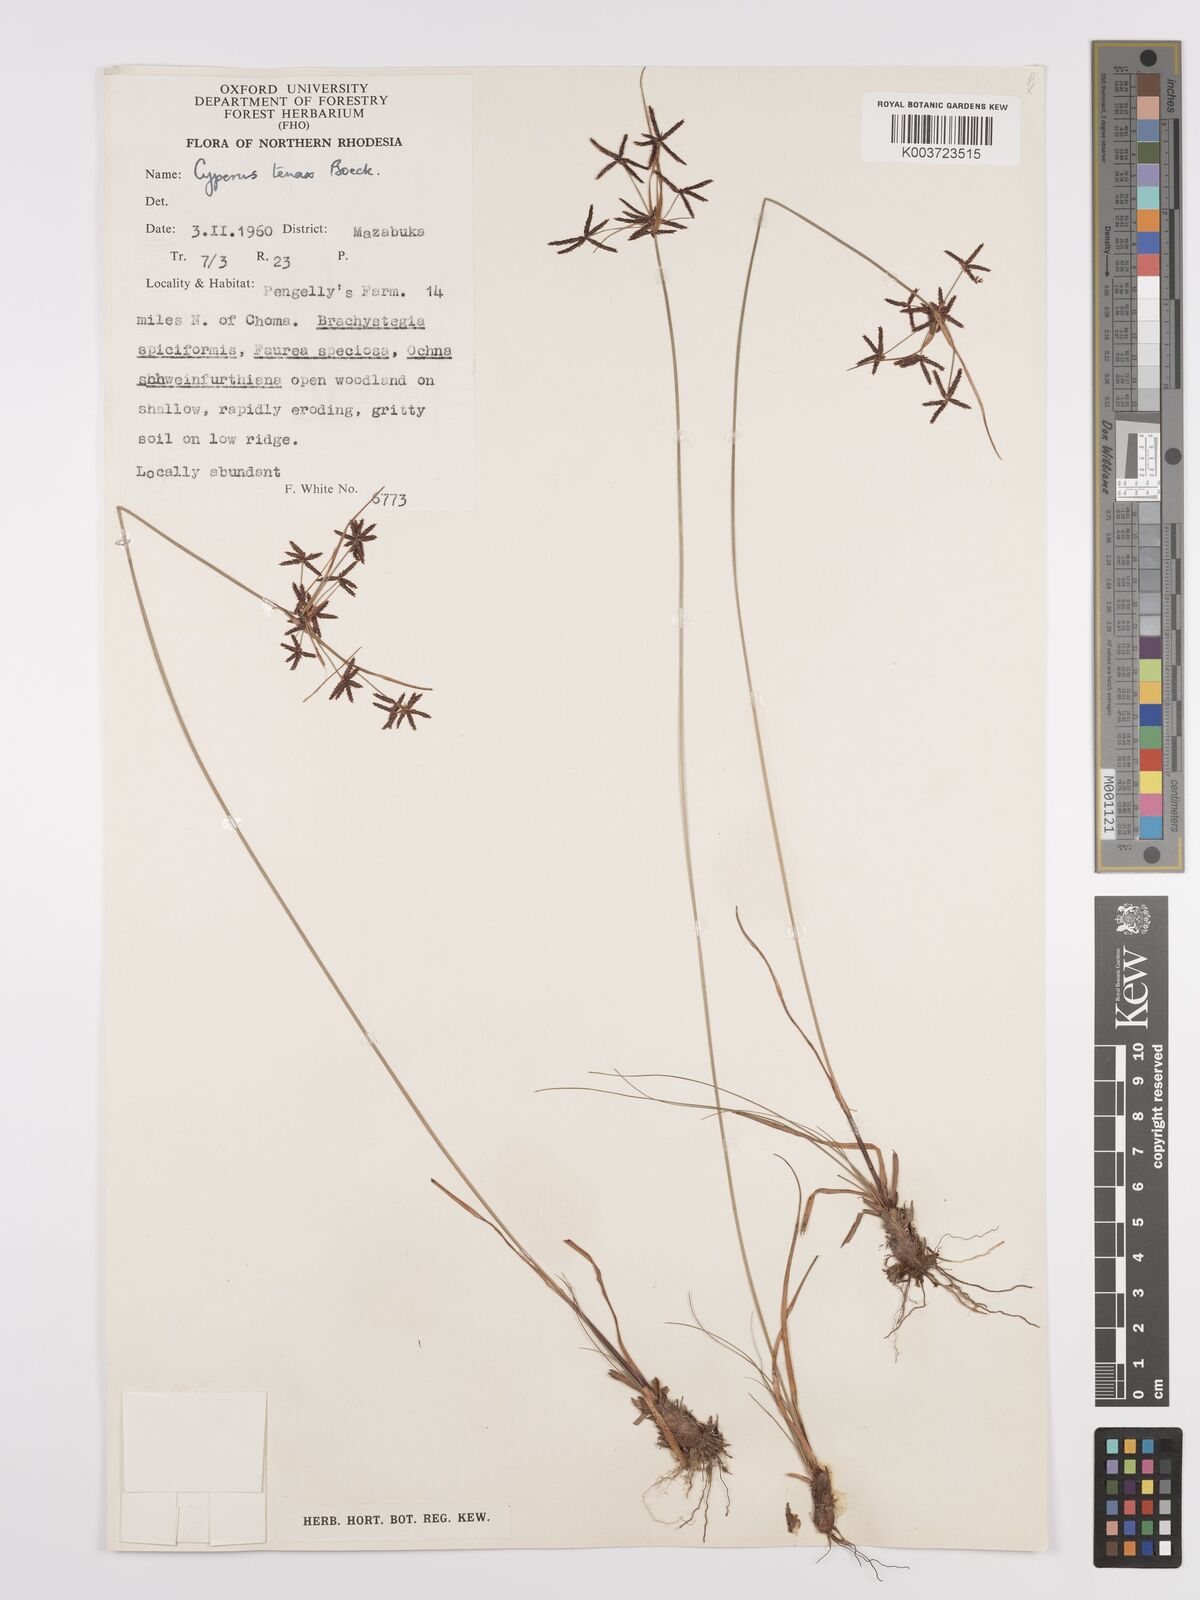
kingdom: Plantae
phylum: Tracheophyta
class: Liliopsida
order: Poales
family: Cyperaceae
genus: Cyperus
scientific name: Cyperus tenax
